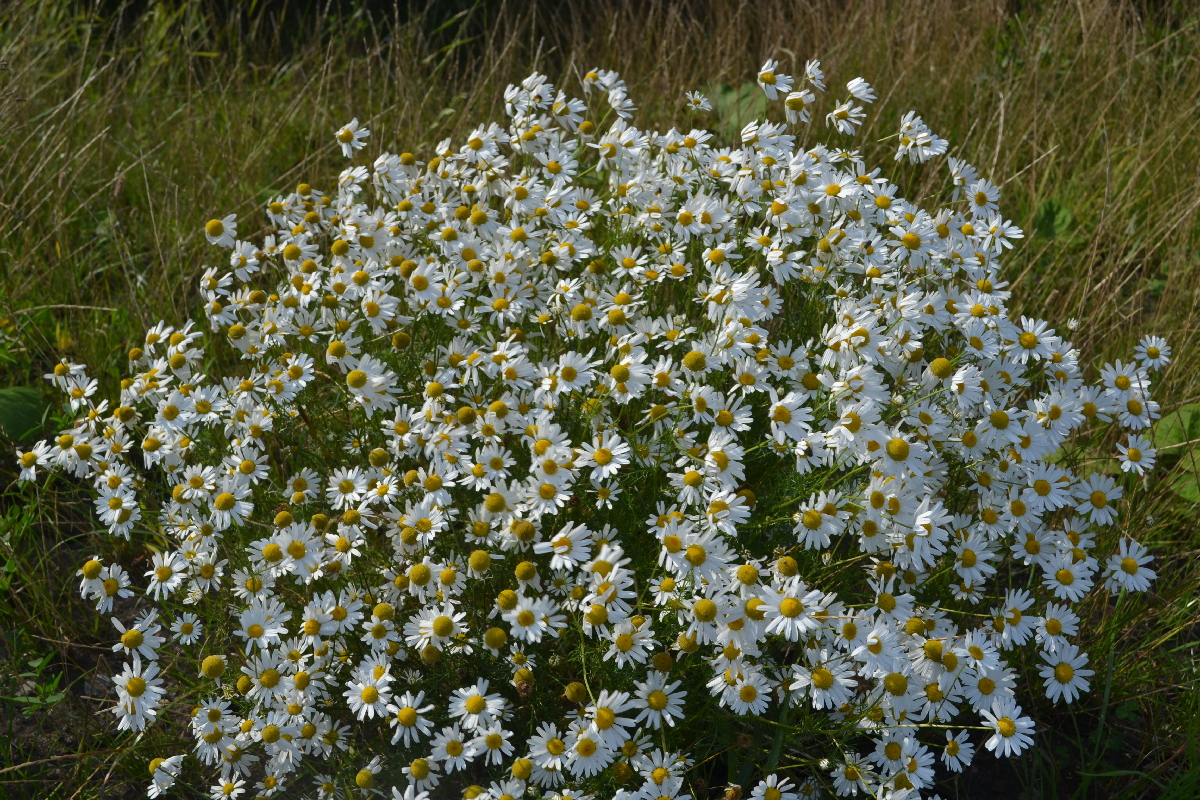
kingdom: Plantae
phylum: Tracheophyta
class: Magnoliopsida
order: Asterales
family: Asteraceae
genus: Tripleurospermum
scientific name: Tripleurospermum inodorum
